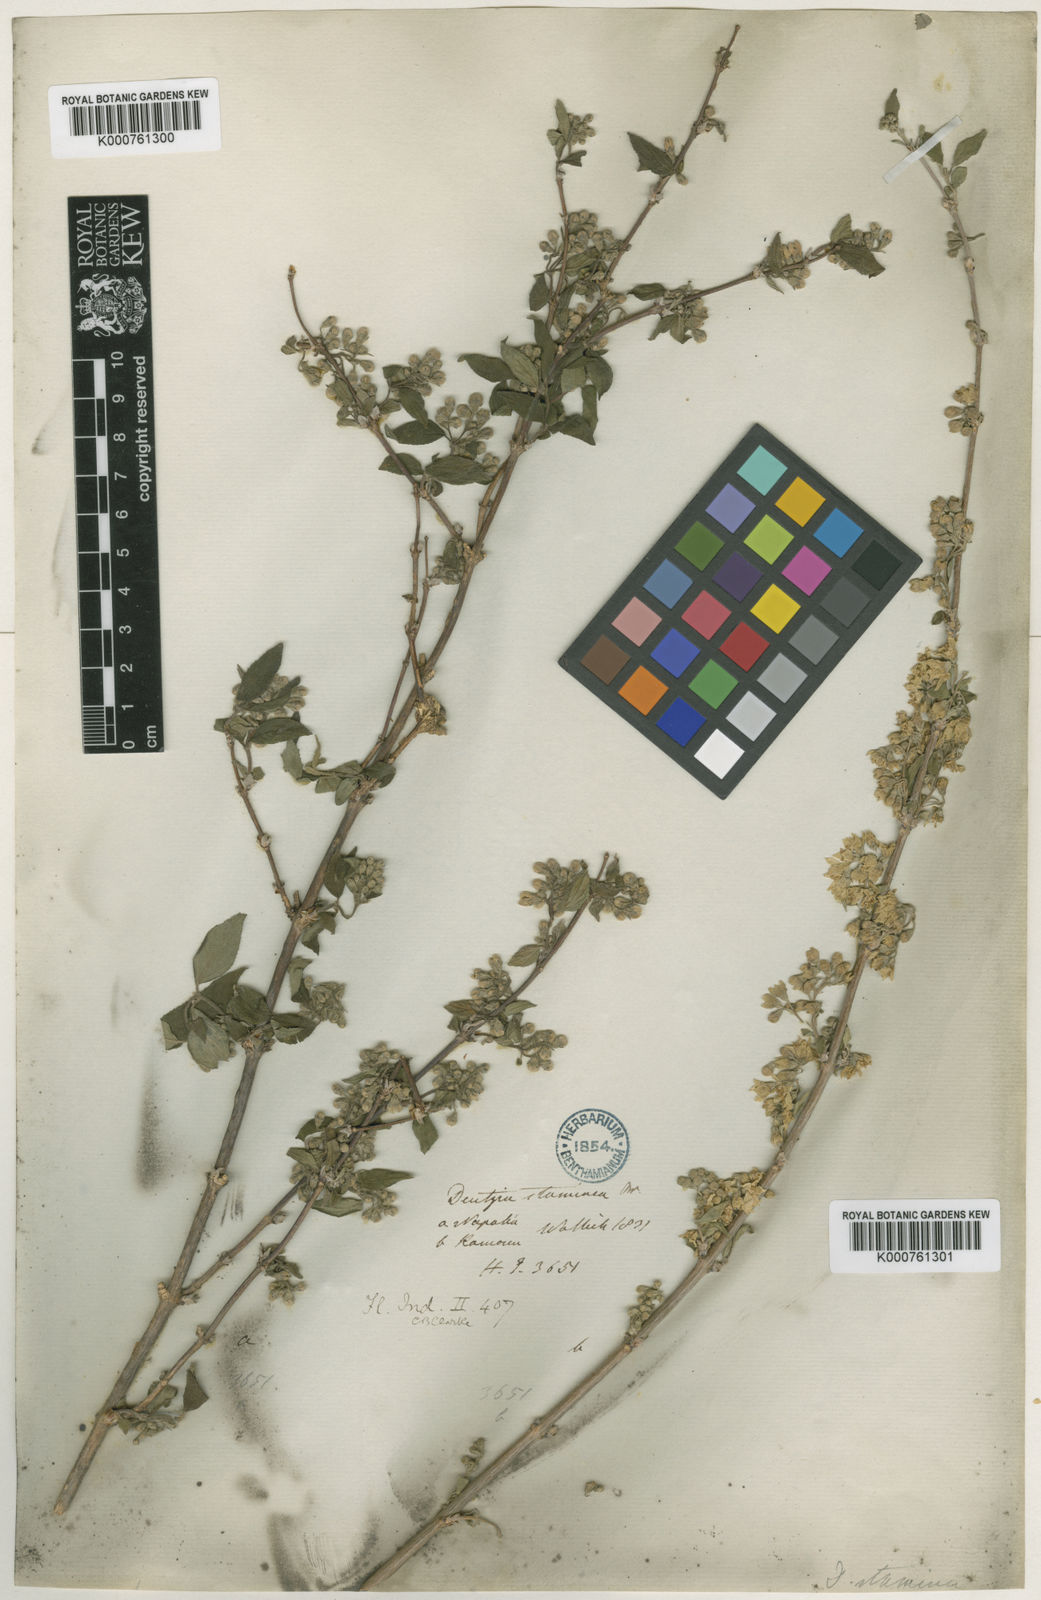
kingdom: Plantae
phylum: Tracheophyta
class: Magnoliopsida
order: Cornales
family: Hydrangeaceae
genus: Deutzia
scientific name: Deutzia
